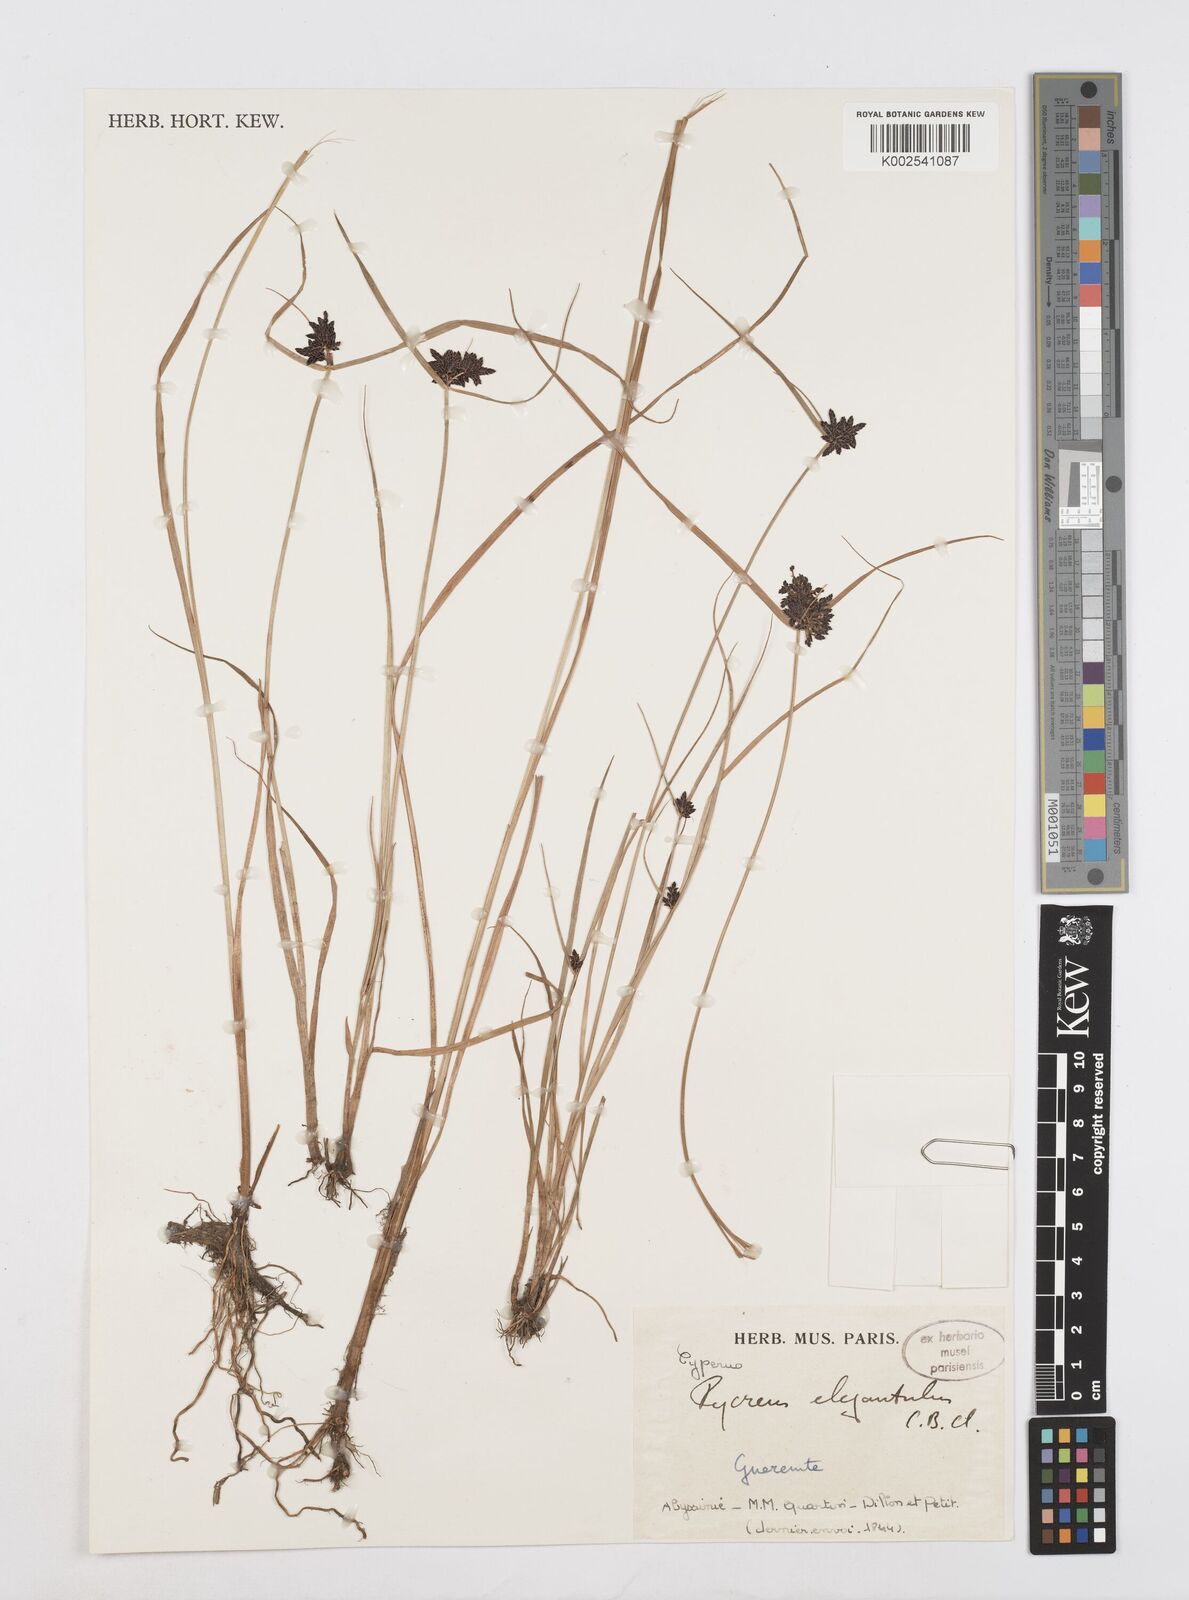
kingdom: Plantae
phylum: Tracheophyta
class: Liliopsida
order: Poales
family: Cyperaceae
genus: Cyperus
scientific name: Cyperus elegantulus
